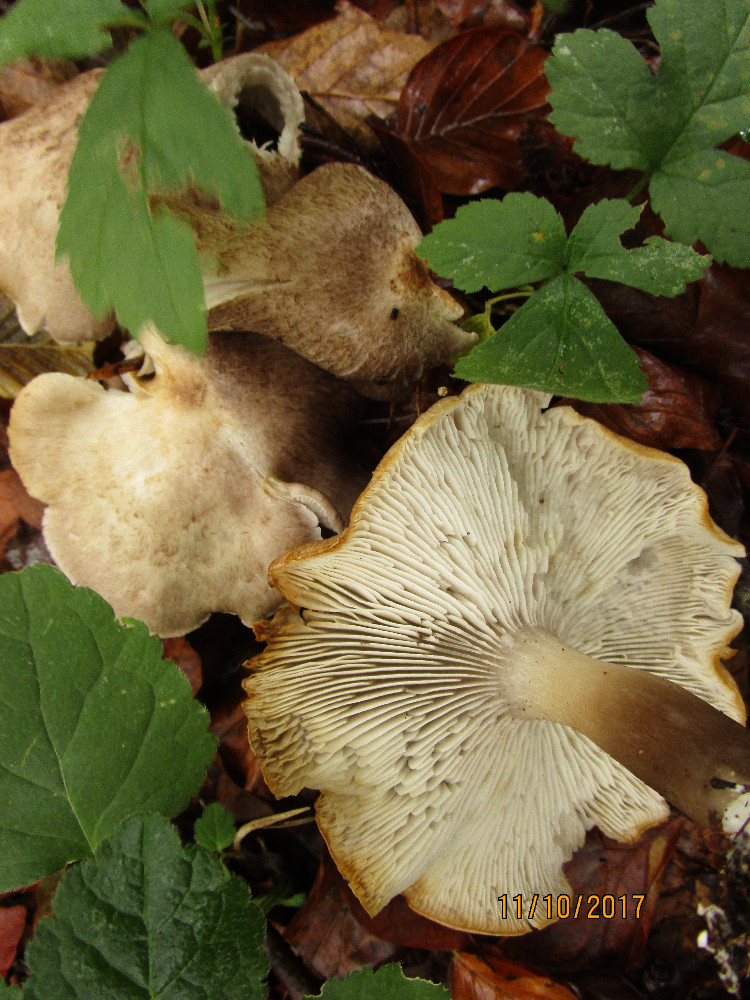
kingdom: Fungi
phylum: Basidiomycota
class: Agaricomycetes
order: Agaricales
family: Tricholomataceae
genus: Tricholoma
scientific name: Tricholoma scalpturatum
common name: gulplettet ridderhat
